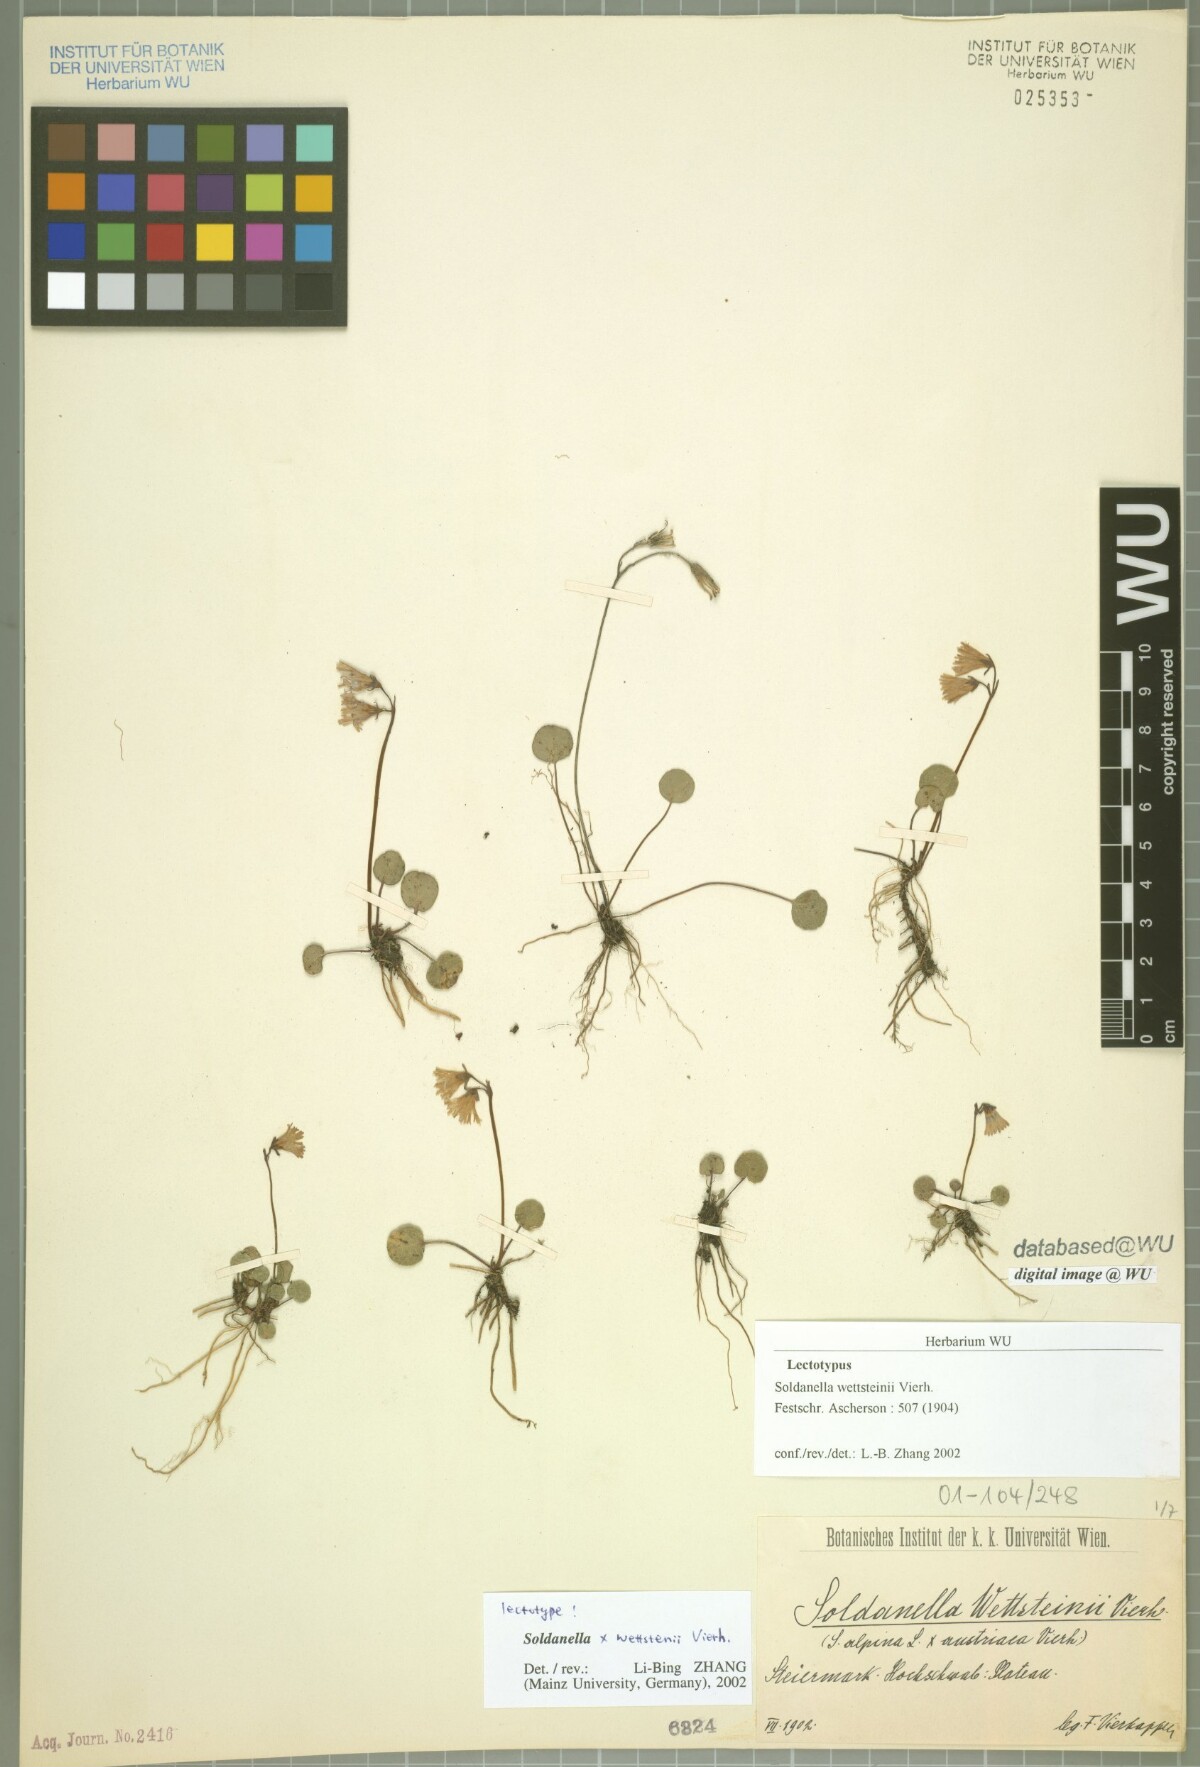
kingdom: Plantae
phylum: Tracheophyta
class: Magnoliopsida
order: Ericales
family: Primulaceae
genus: Soldanella
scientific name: Soldanella wettsteinii
